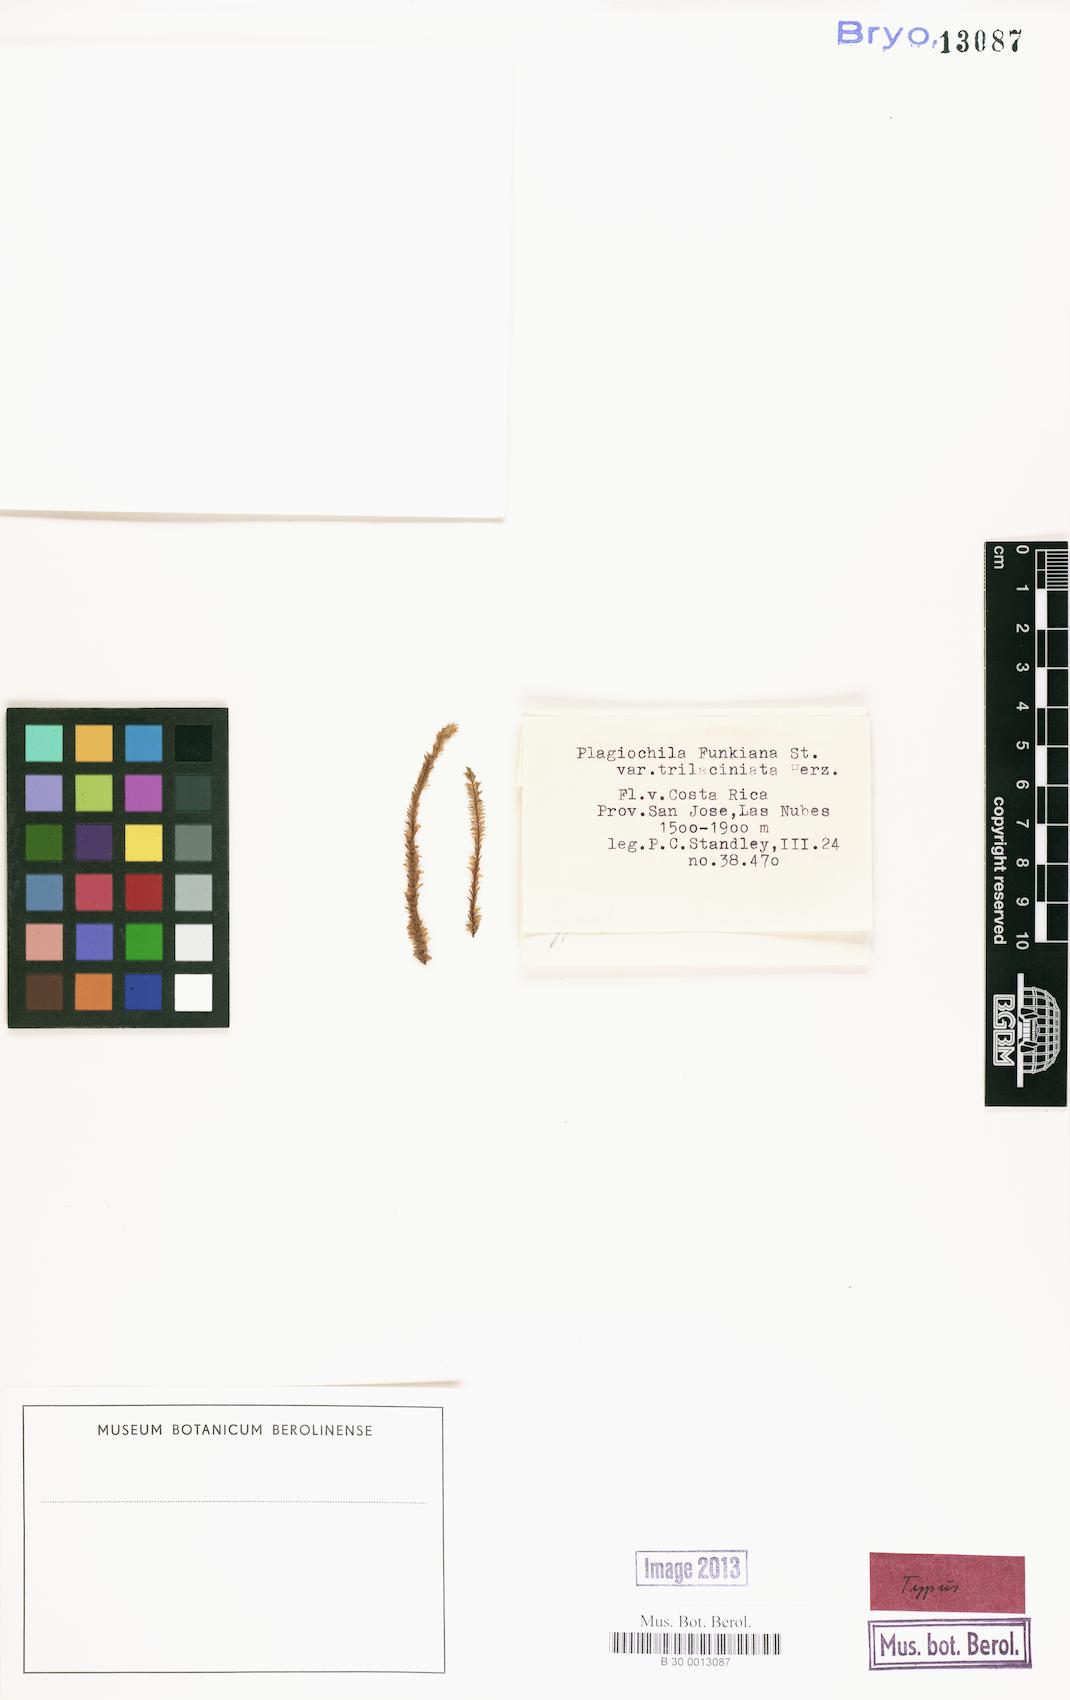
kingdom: Plantae
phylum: Marchantiophyta
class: Jungermanniopsida
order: Jungermanniales
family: Plagiochilaceae
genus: Plagiochila
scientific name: Plagiochila macra
